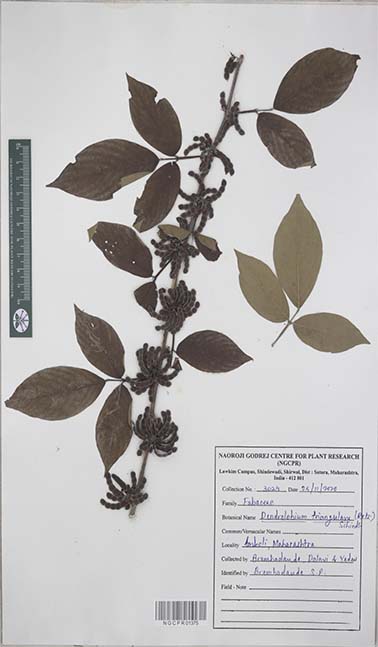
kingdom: Plantae
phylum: Tracheophyta
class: Magnoliopsida
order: Fabales
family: Fabaceae
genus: Dendrolobium
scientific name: Dendrolobium triangulare
